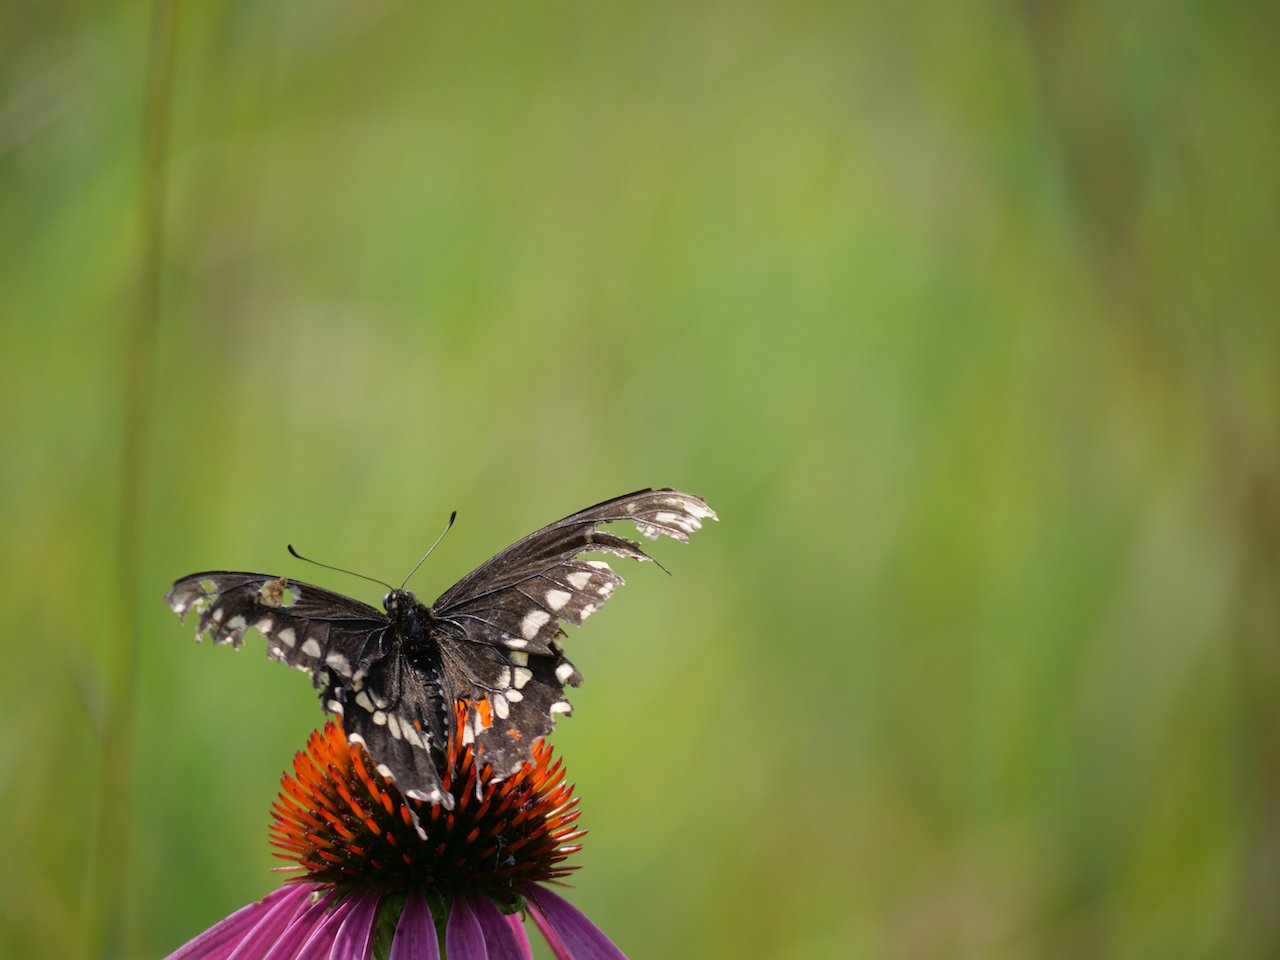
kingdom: Animalia
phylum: Arthropoda
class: Insecta
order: Lepidoptera
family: Papilionidae
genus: Papilio
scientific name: Papilio polyxenes
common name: Black Swallowtail
